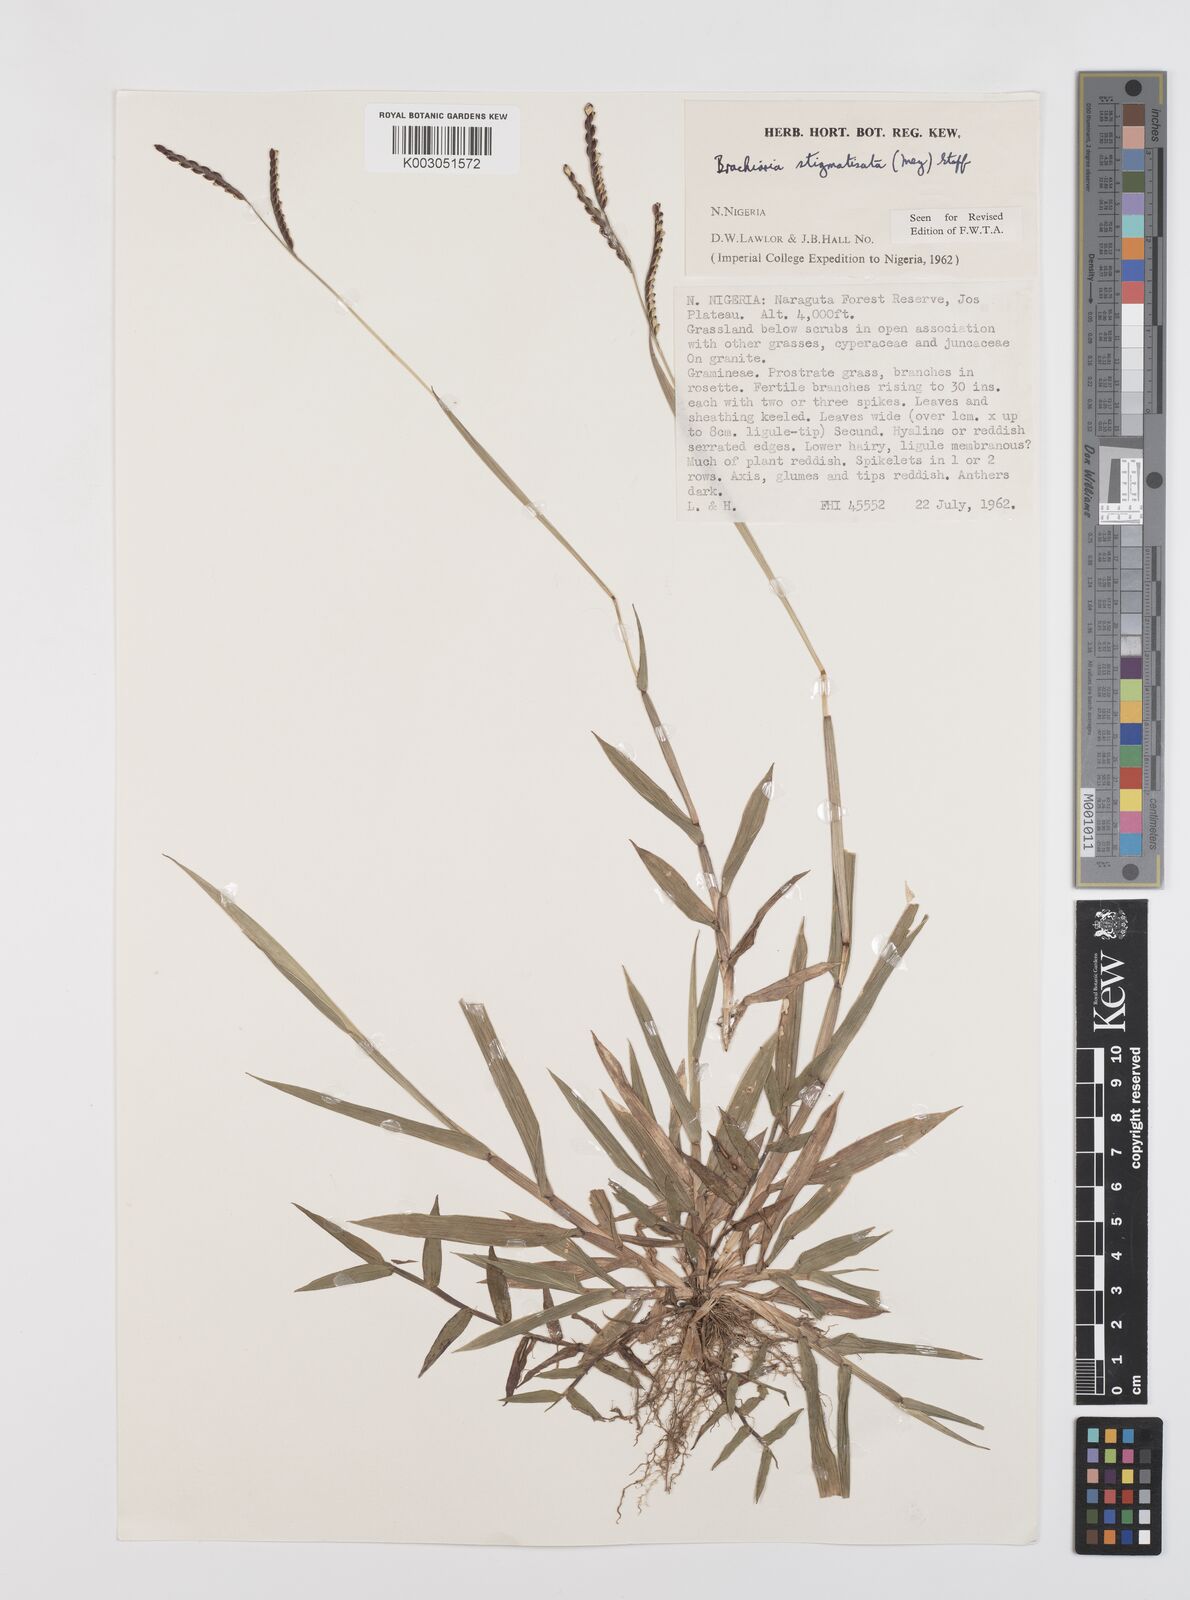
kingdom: Plantae
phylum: Tracheophyta
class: Liliopsida
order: Poales
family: Poaceae
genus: Urochloa
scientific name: Urochloa stigmatisata
